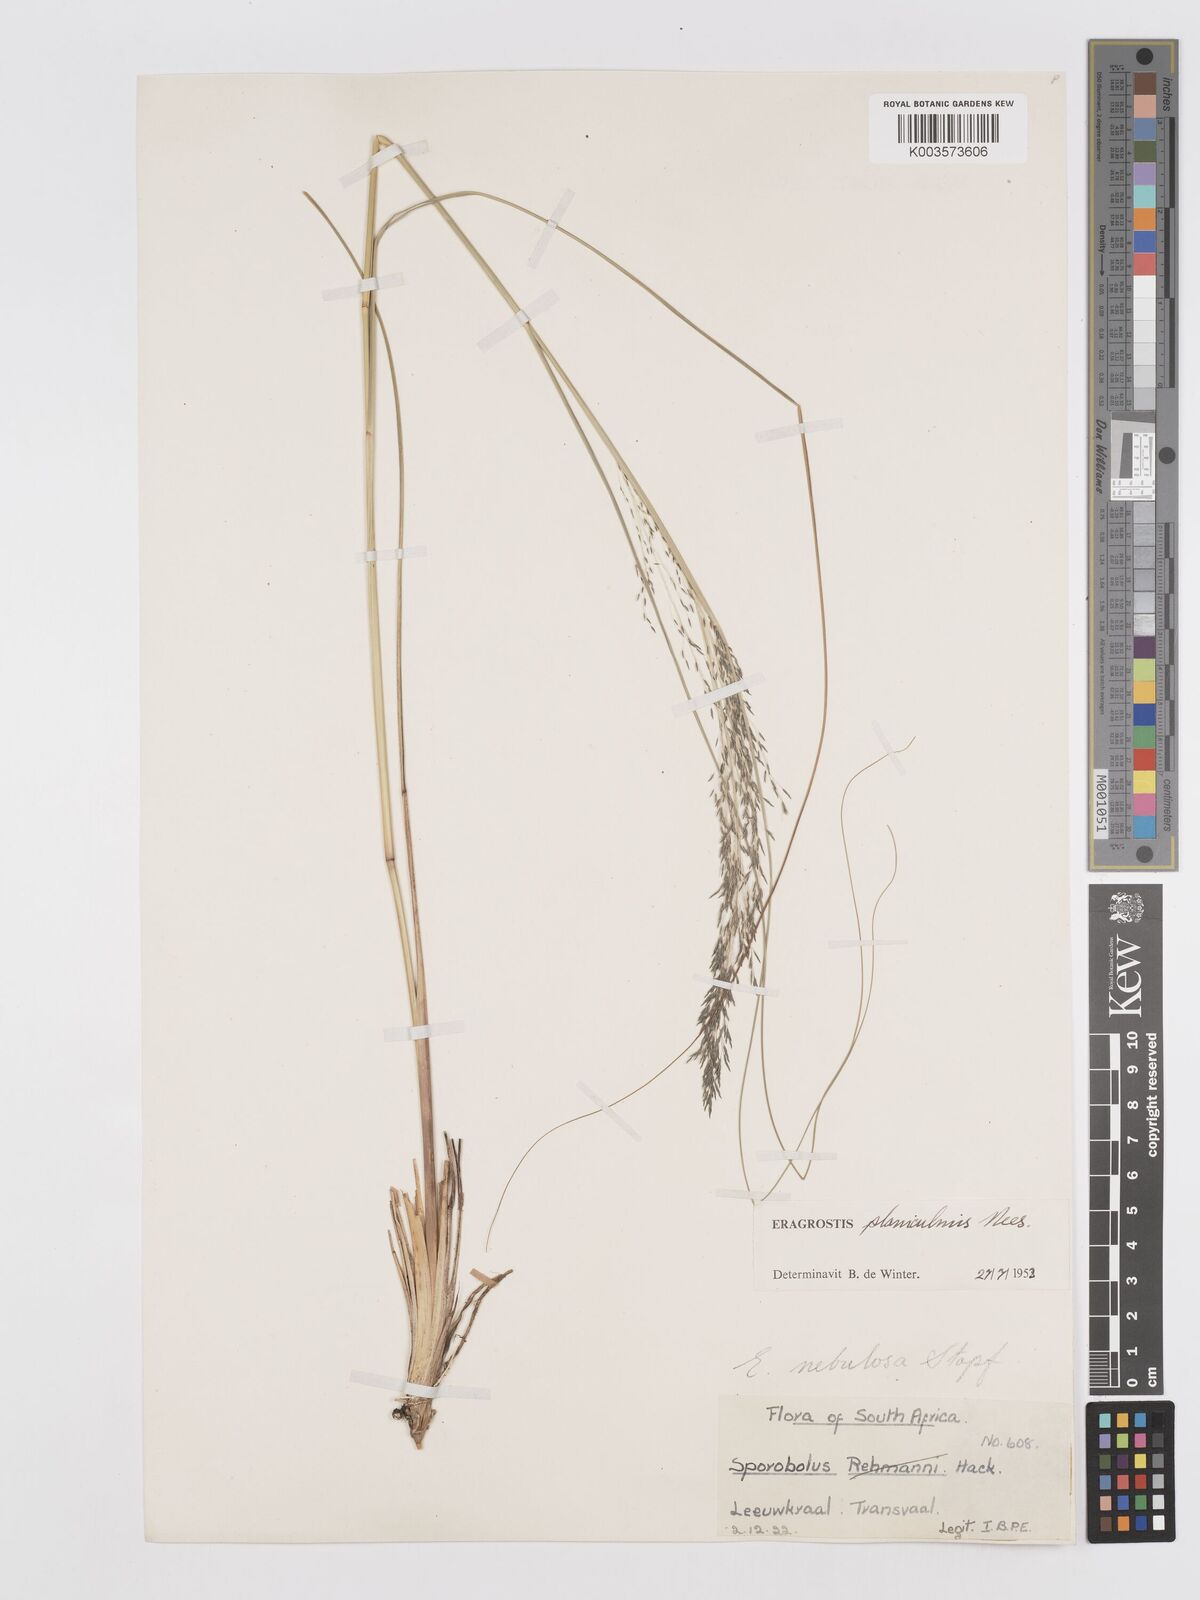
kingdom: Plantae
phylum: Tracheophyta
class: Liliopsida
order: Poales
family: Poaceae
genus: Eragrostis
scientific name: Eragrostis planiculmis
